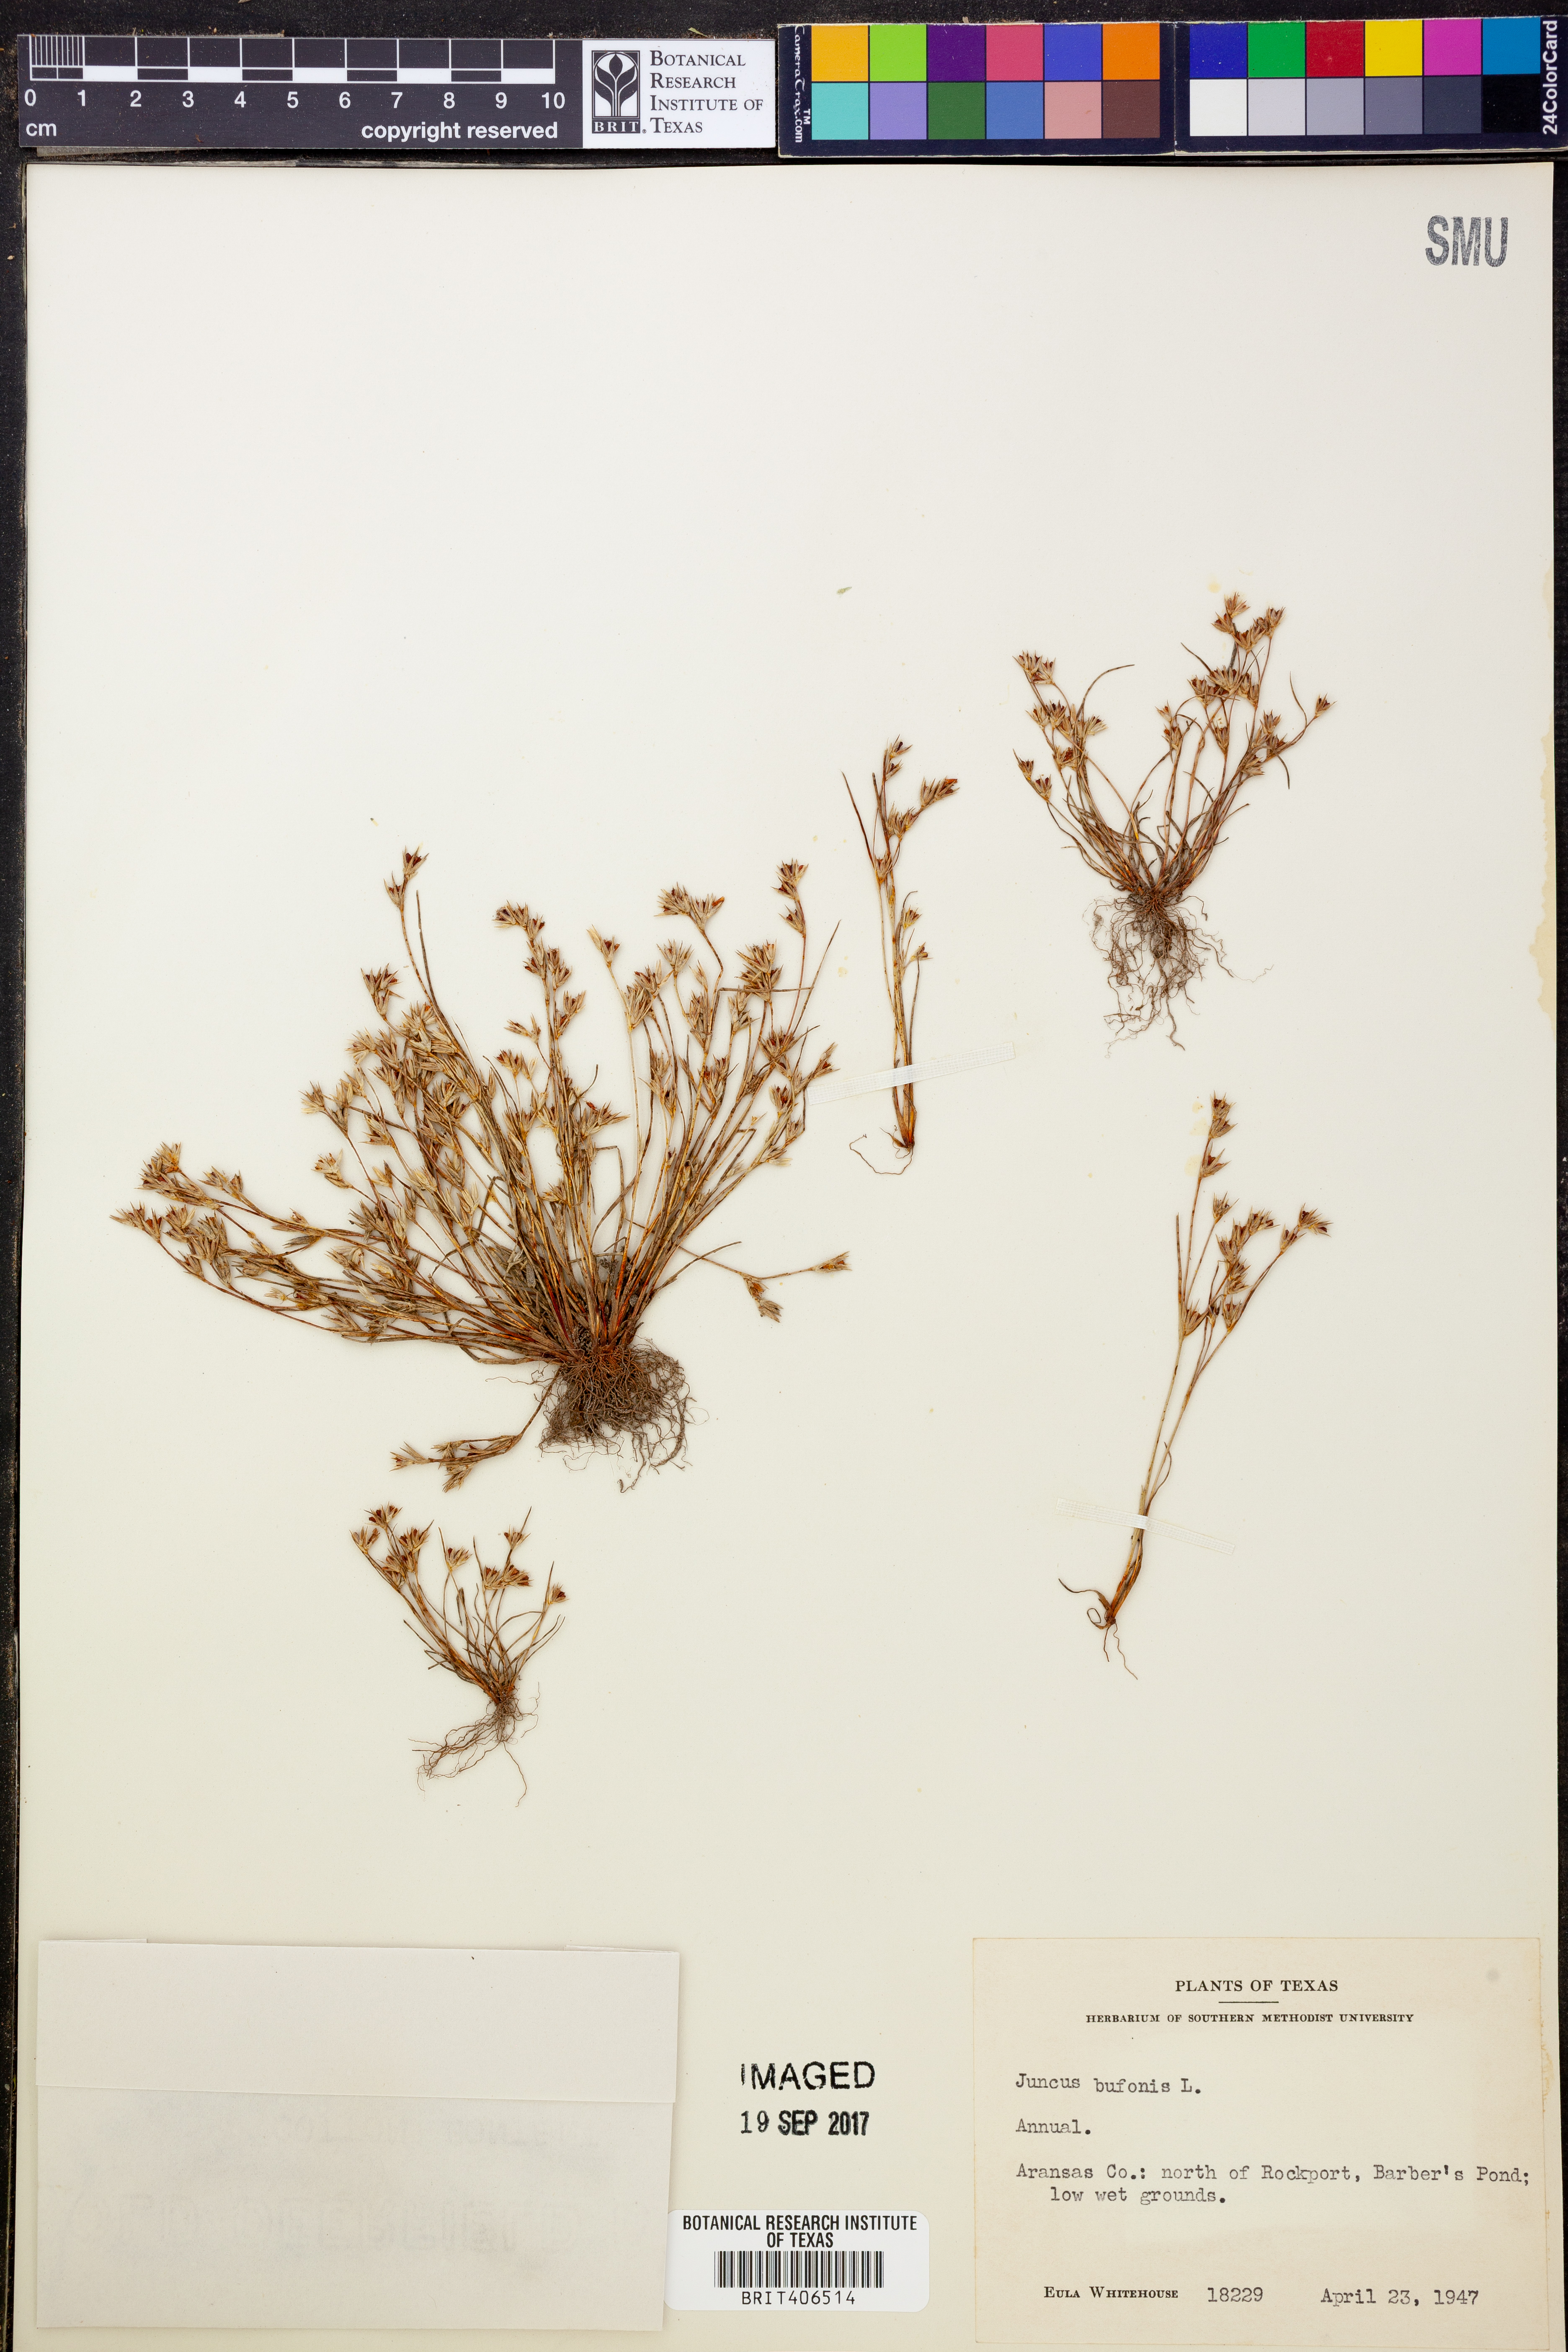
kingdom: Plantae
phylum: Tracheophyta
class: Liliopsida
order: Poales
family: Juncaceae
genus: Juncus
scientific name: Juncus bufonius
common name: Toad rush
